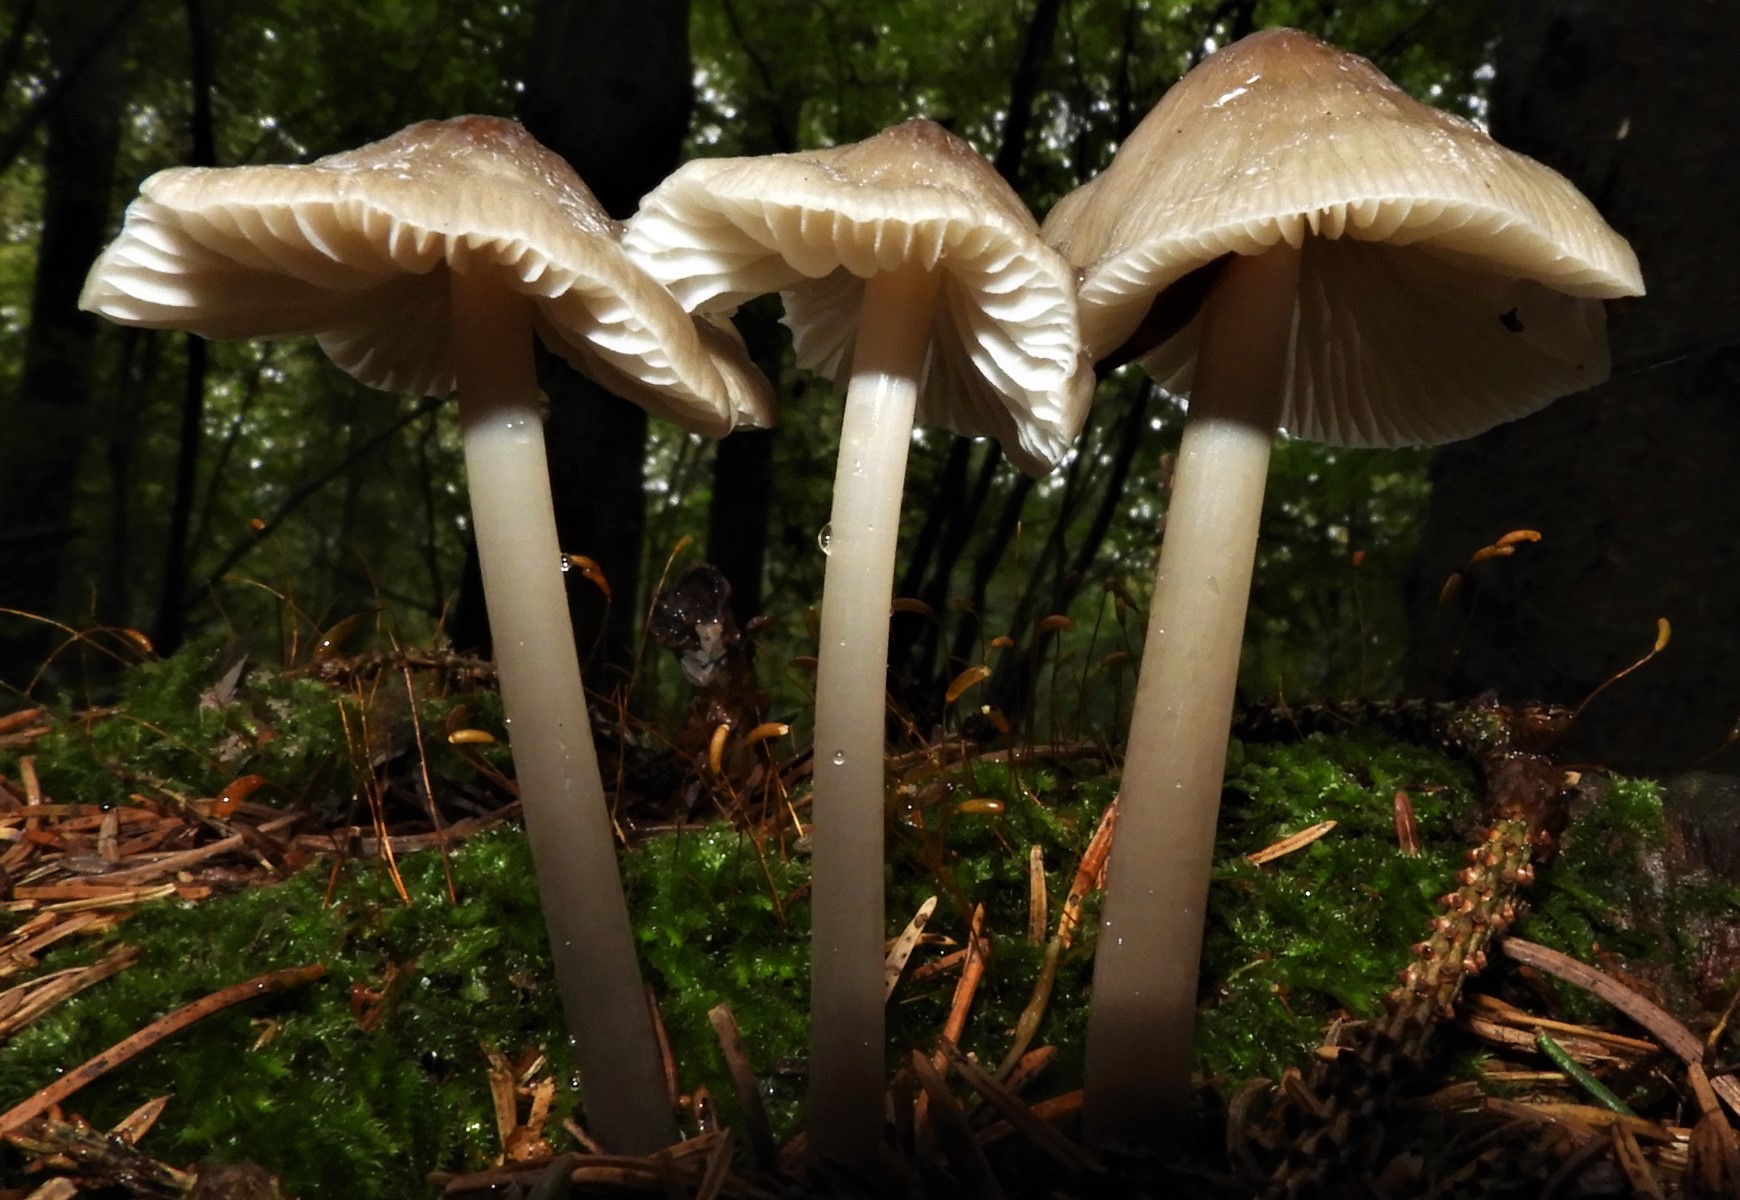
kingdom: Fungi
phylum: Basidiomycota
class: Agaricomycetes
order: Agaricales
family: Mycenaceae
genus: Mycena
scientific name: Mycena galericulata
